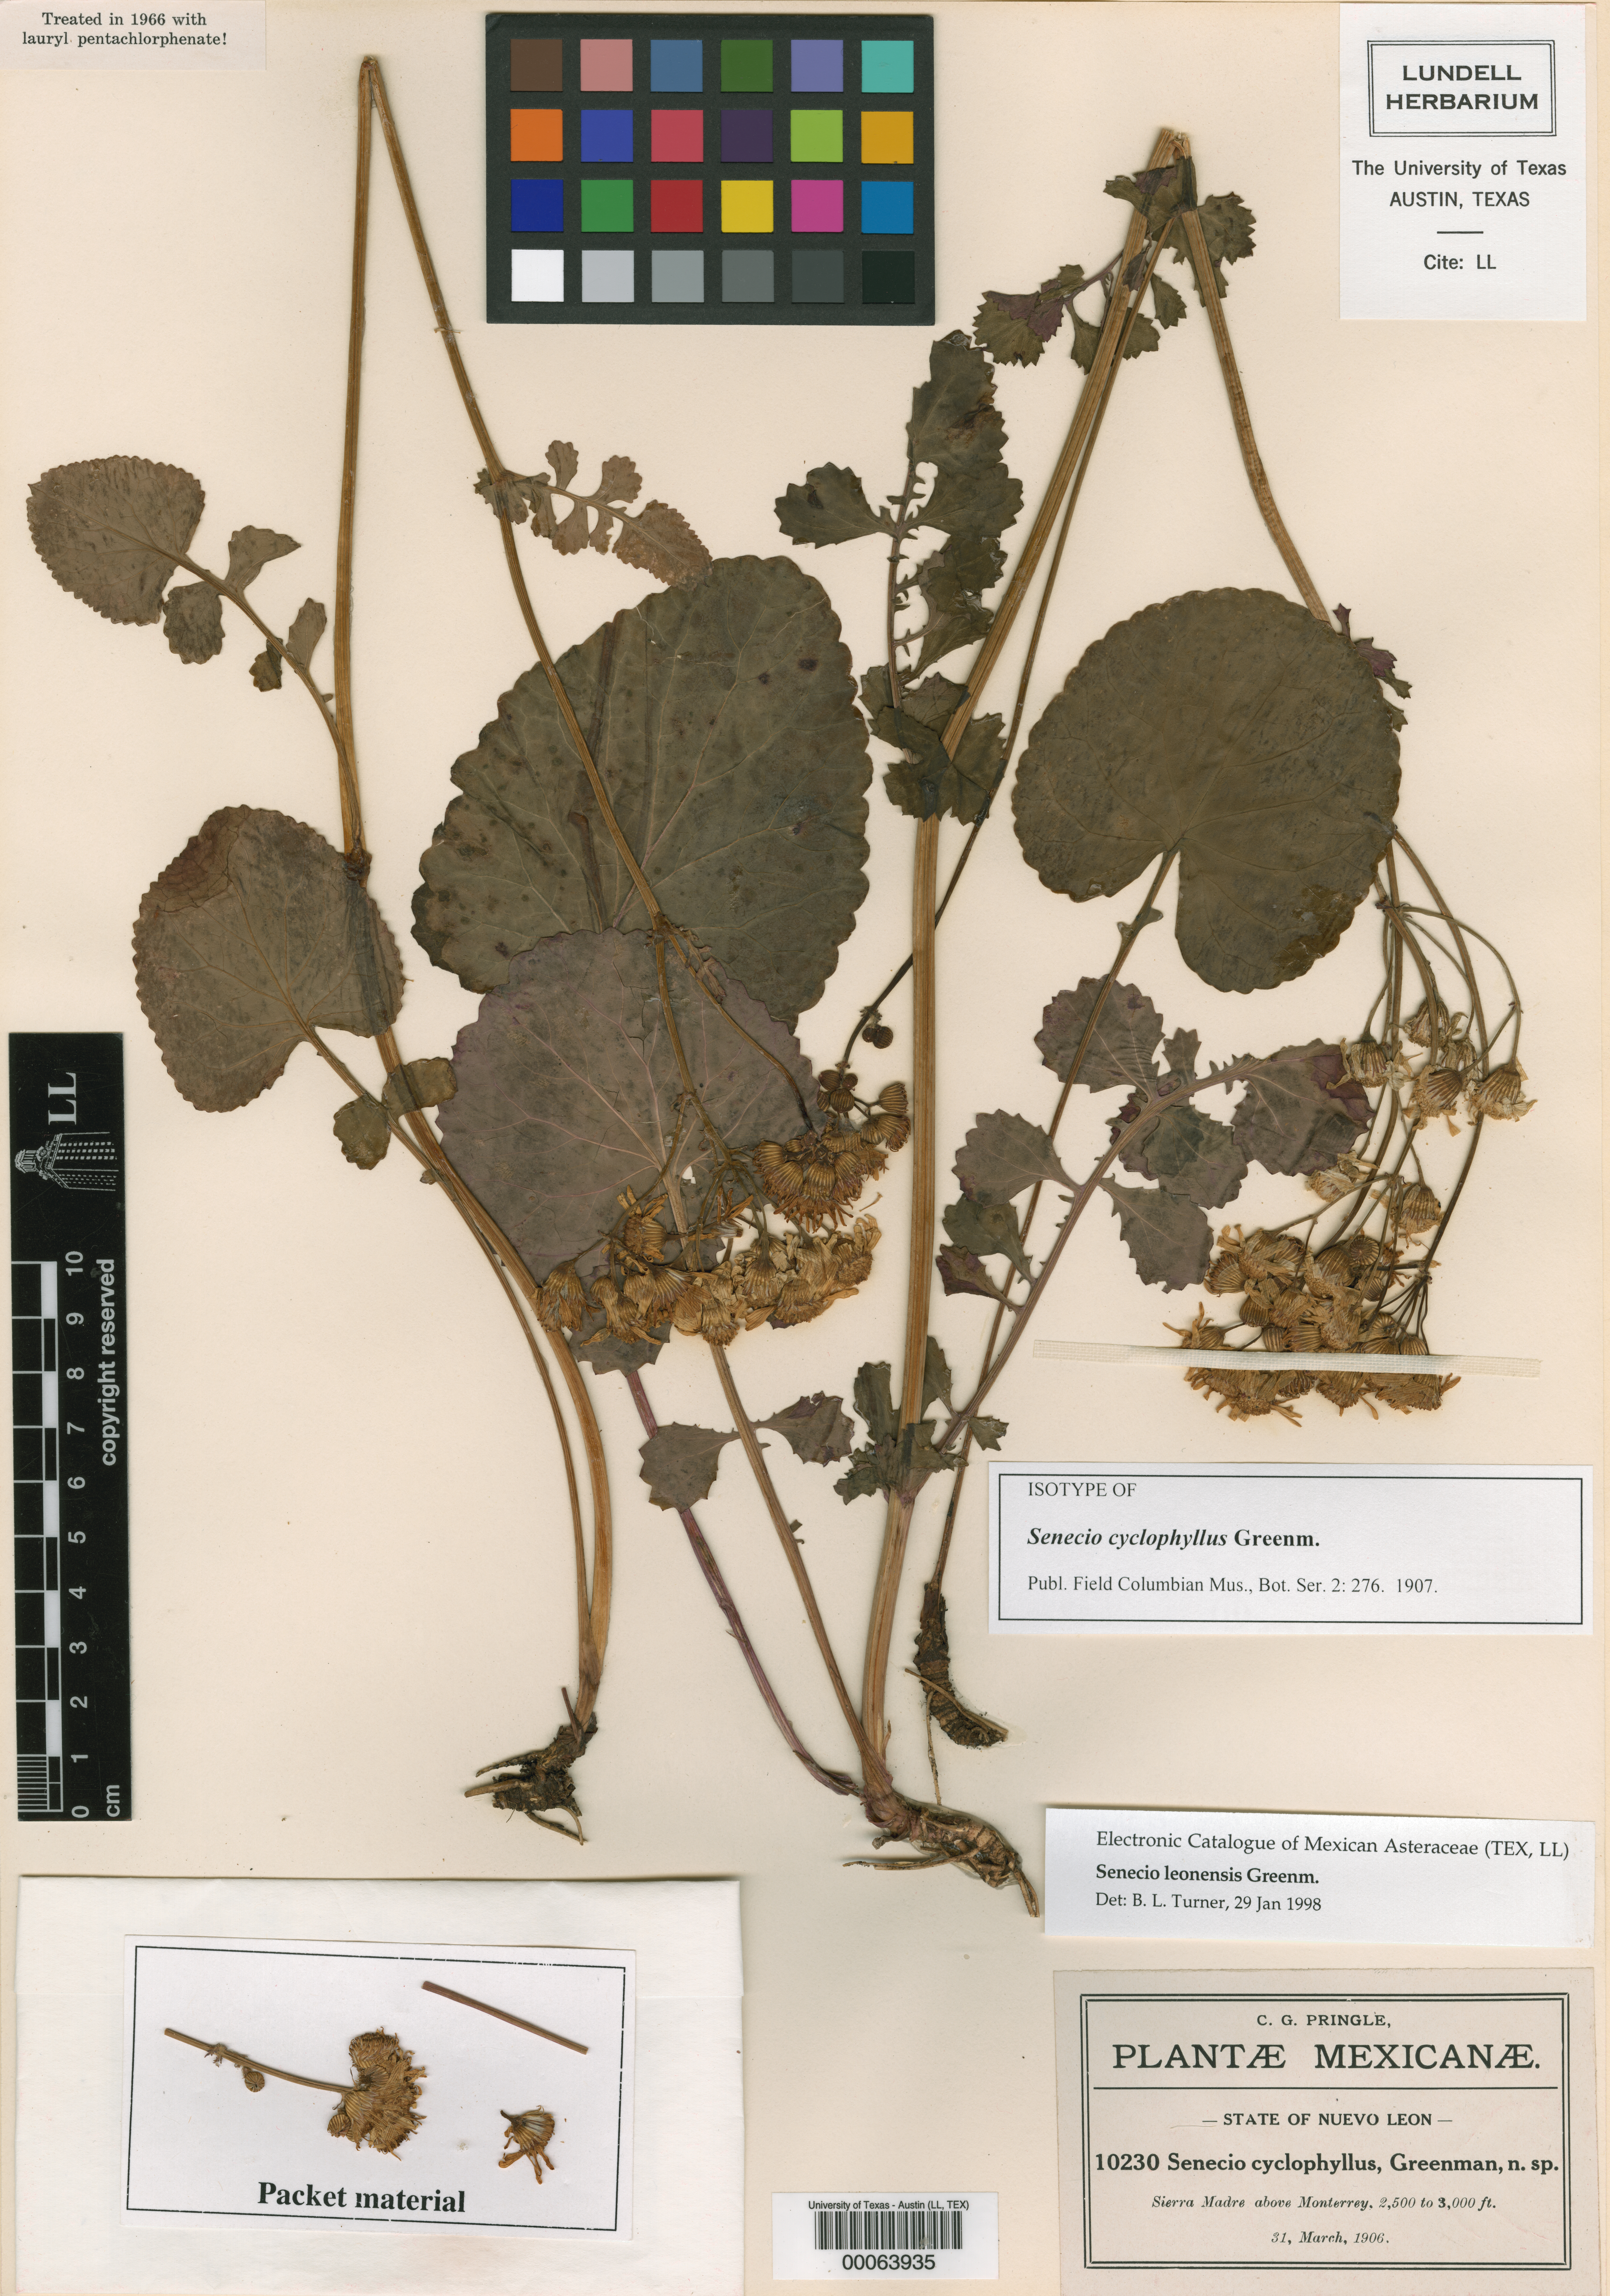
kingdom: Plantae
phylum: Tracheophyta
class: Magnoliopsida
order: Asterales
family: Asteraceae
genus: Packera
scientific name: Packera coahuilensis
